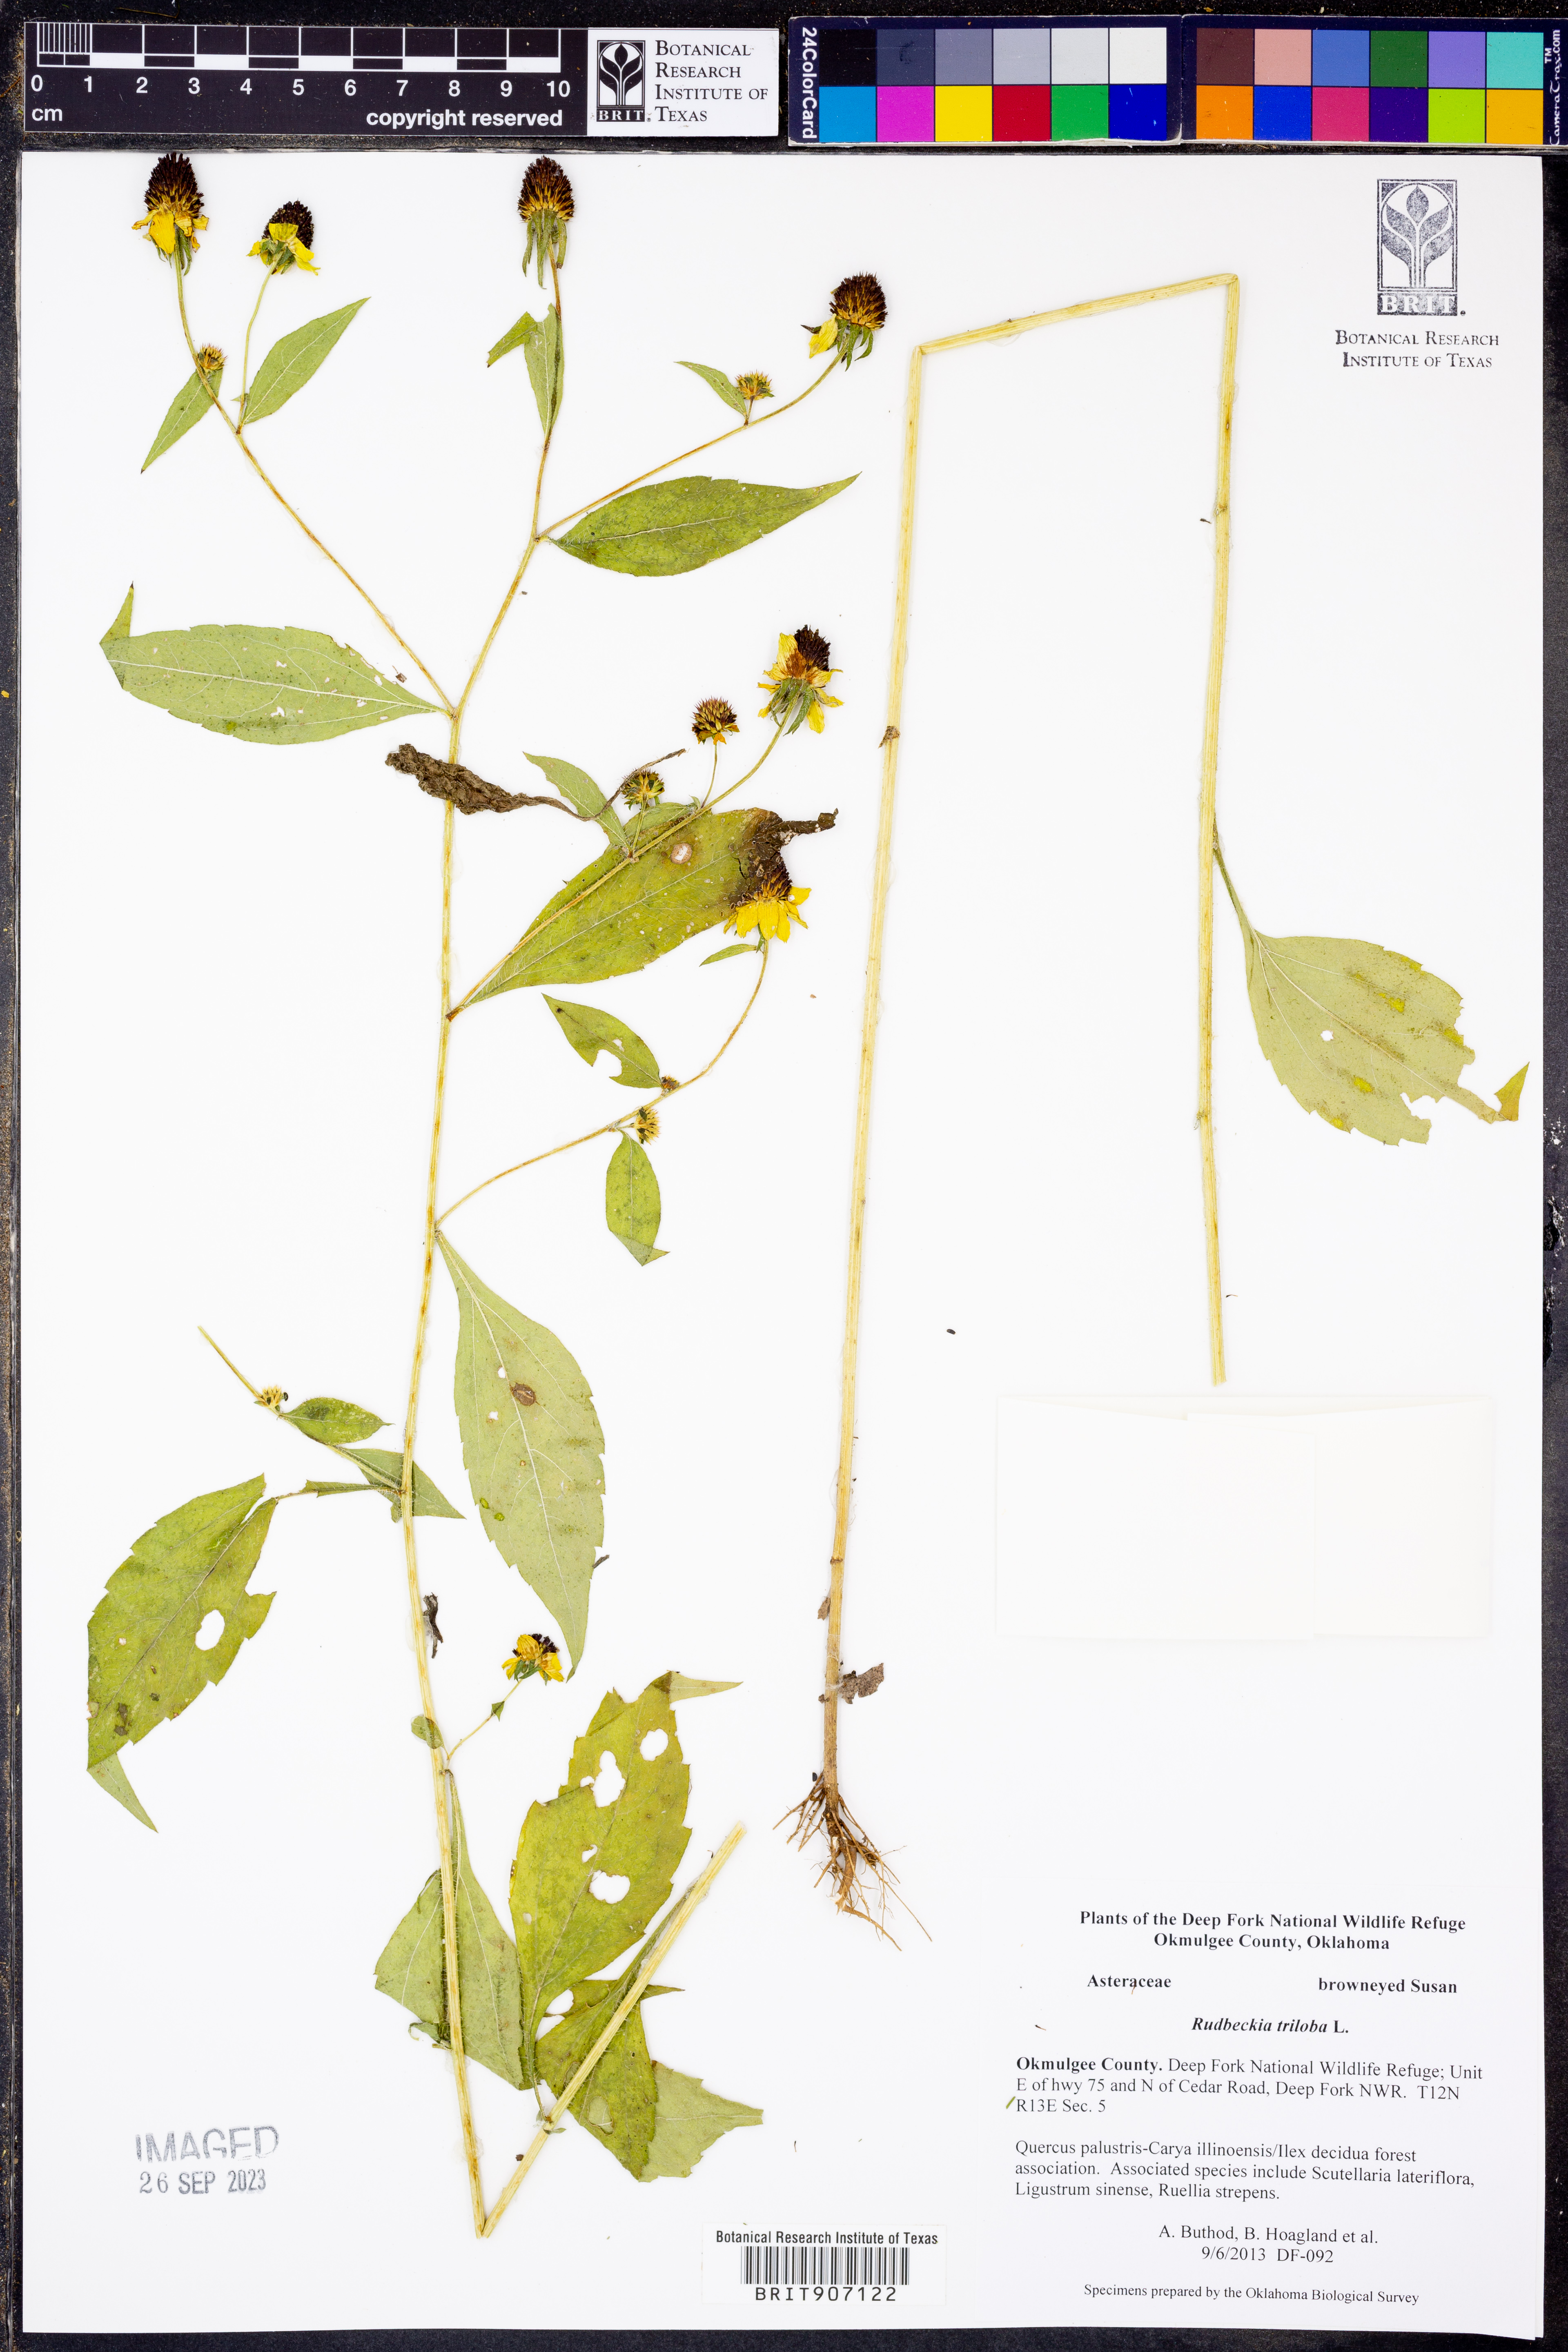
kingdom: Plantae
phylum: Tracheophyta
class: Magnoliopsida
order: Asterales
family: Asteraceae
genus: Rudbeckia
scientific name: Rudbeckia triloba
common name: Thin-leaved coneflower
